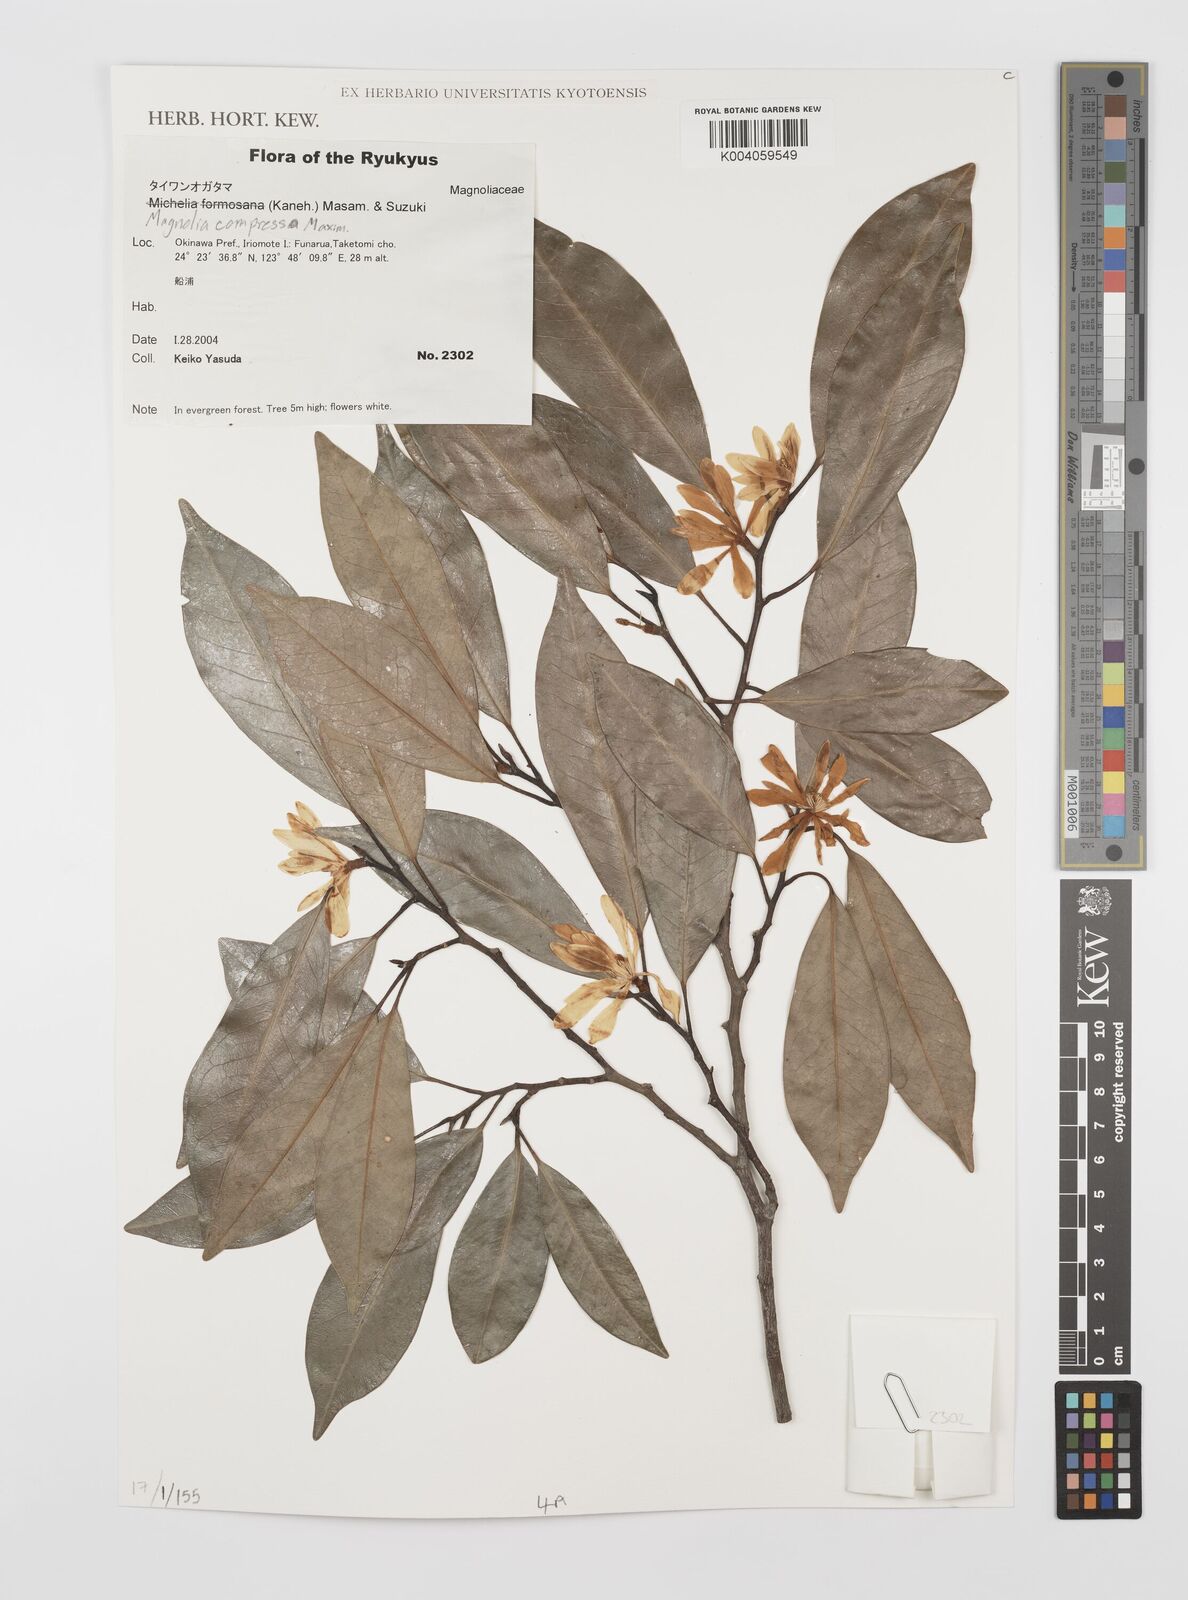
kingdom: Plantae
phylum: Tracheophyta
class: Magnoliopsida
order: Magnoliales
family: Magnoliaceae
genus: Magnolia
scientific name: Magnolia compressa
